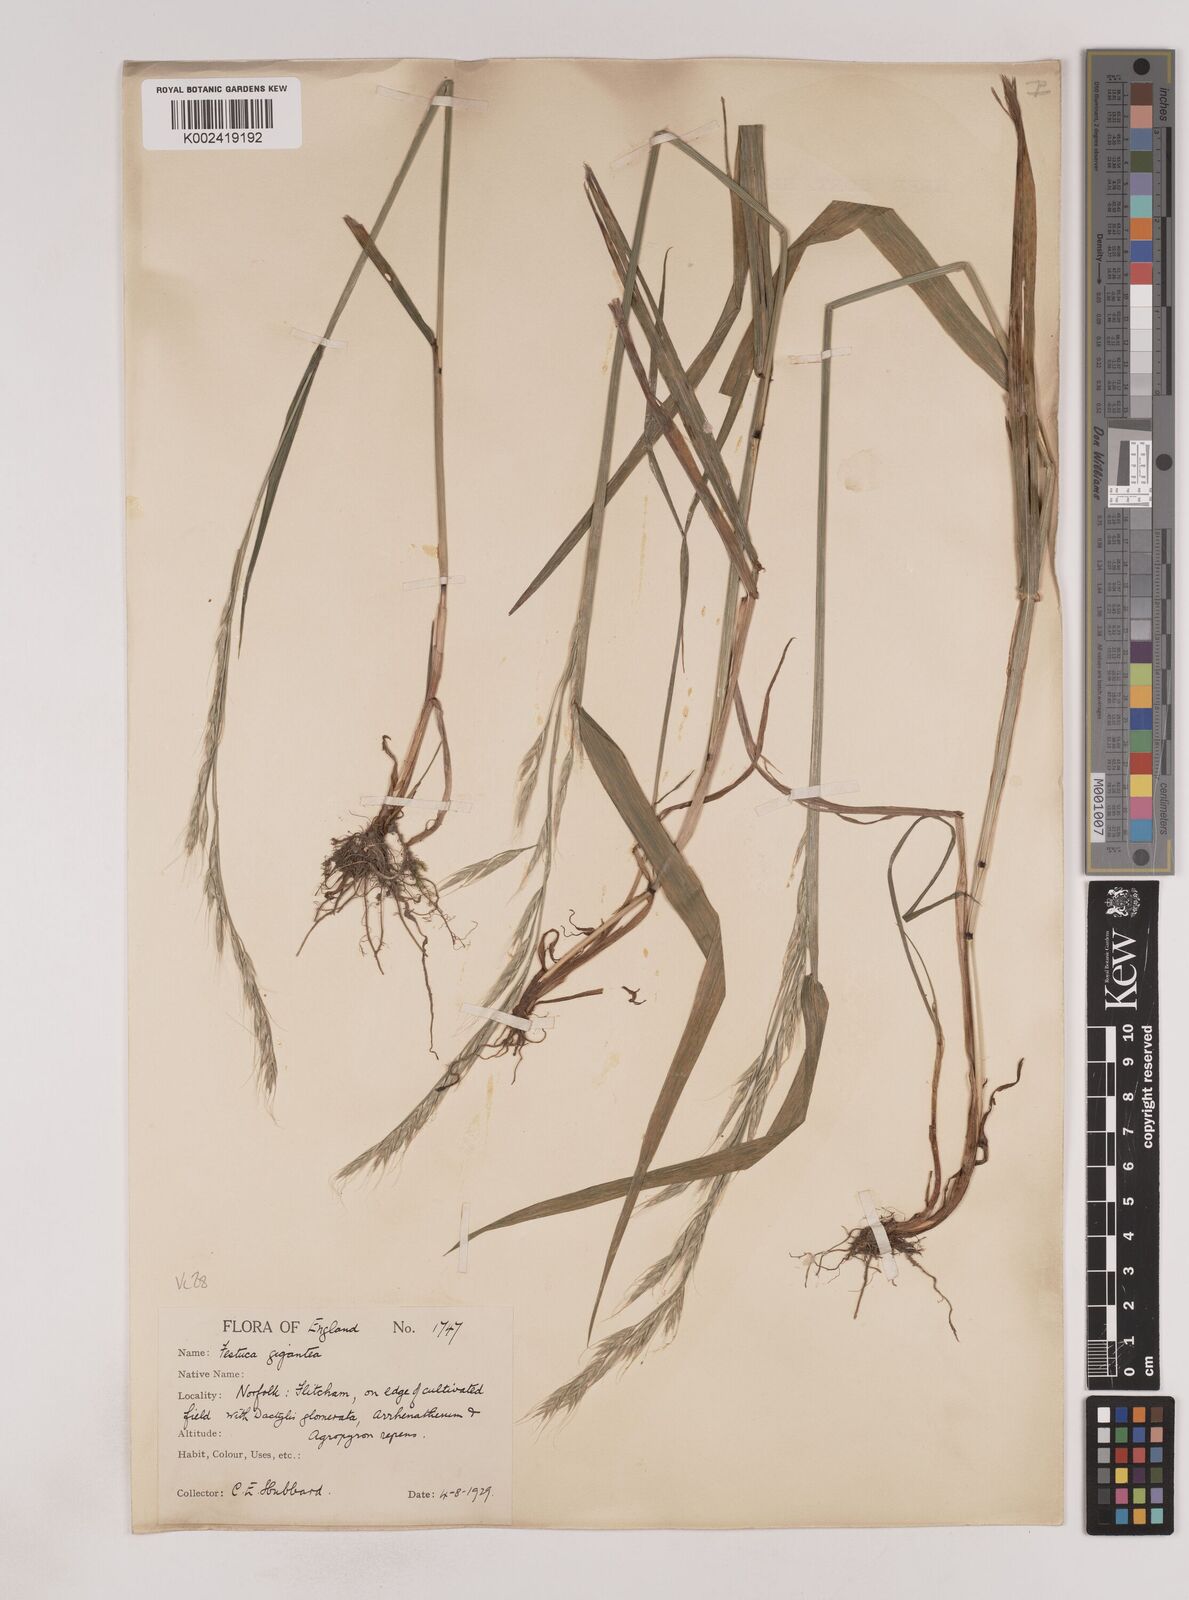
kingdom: Plantae
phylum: Tracheophyta
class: Liliopsida
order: Poales
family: Poaceae
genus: Lolium
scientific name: Lolium giganteum
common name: Giant fescue
